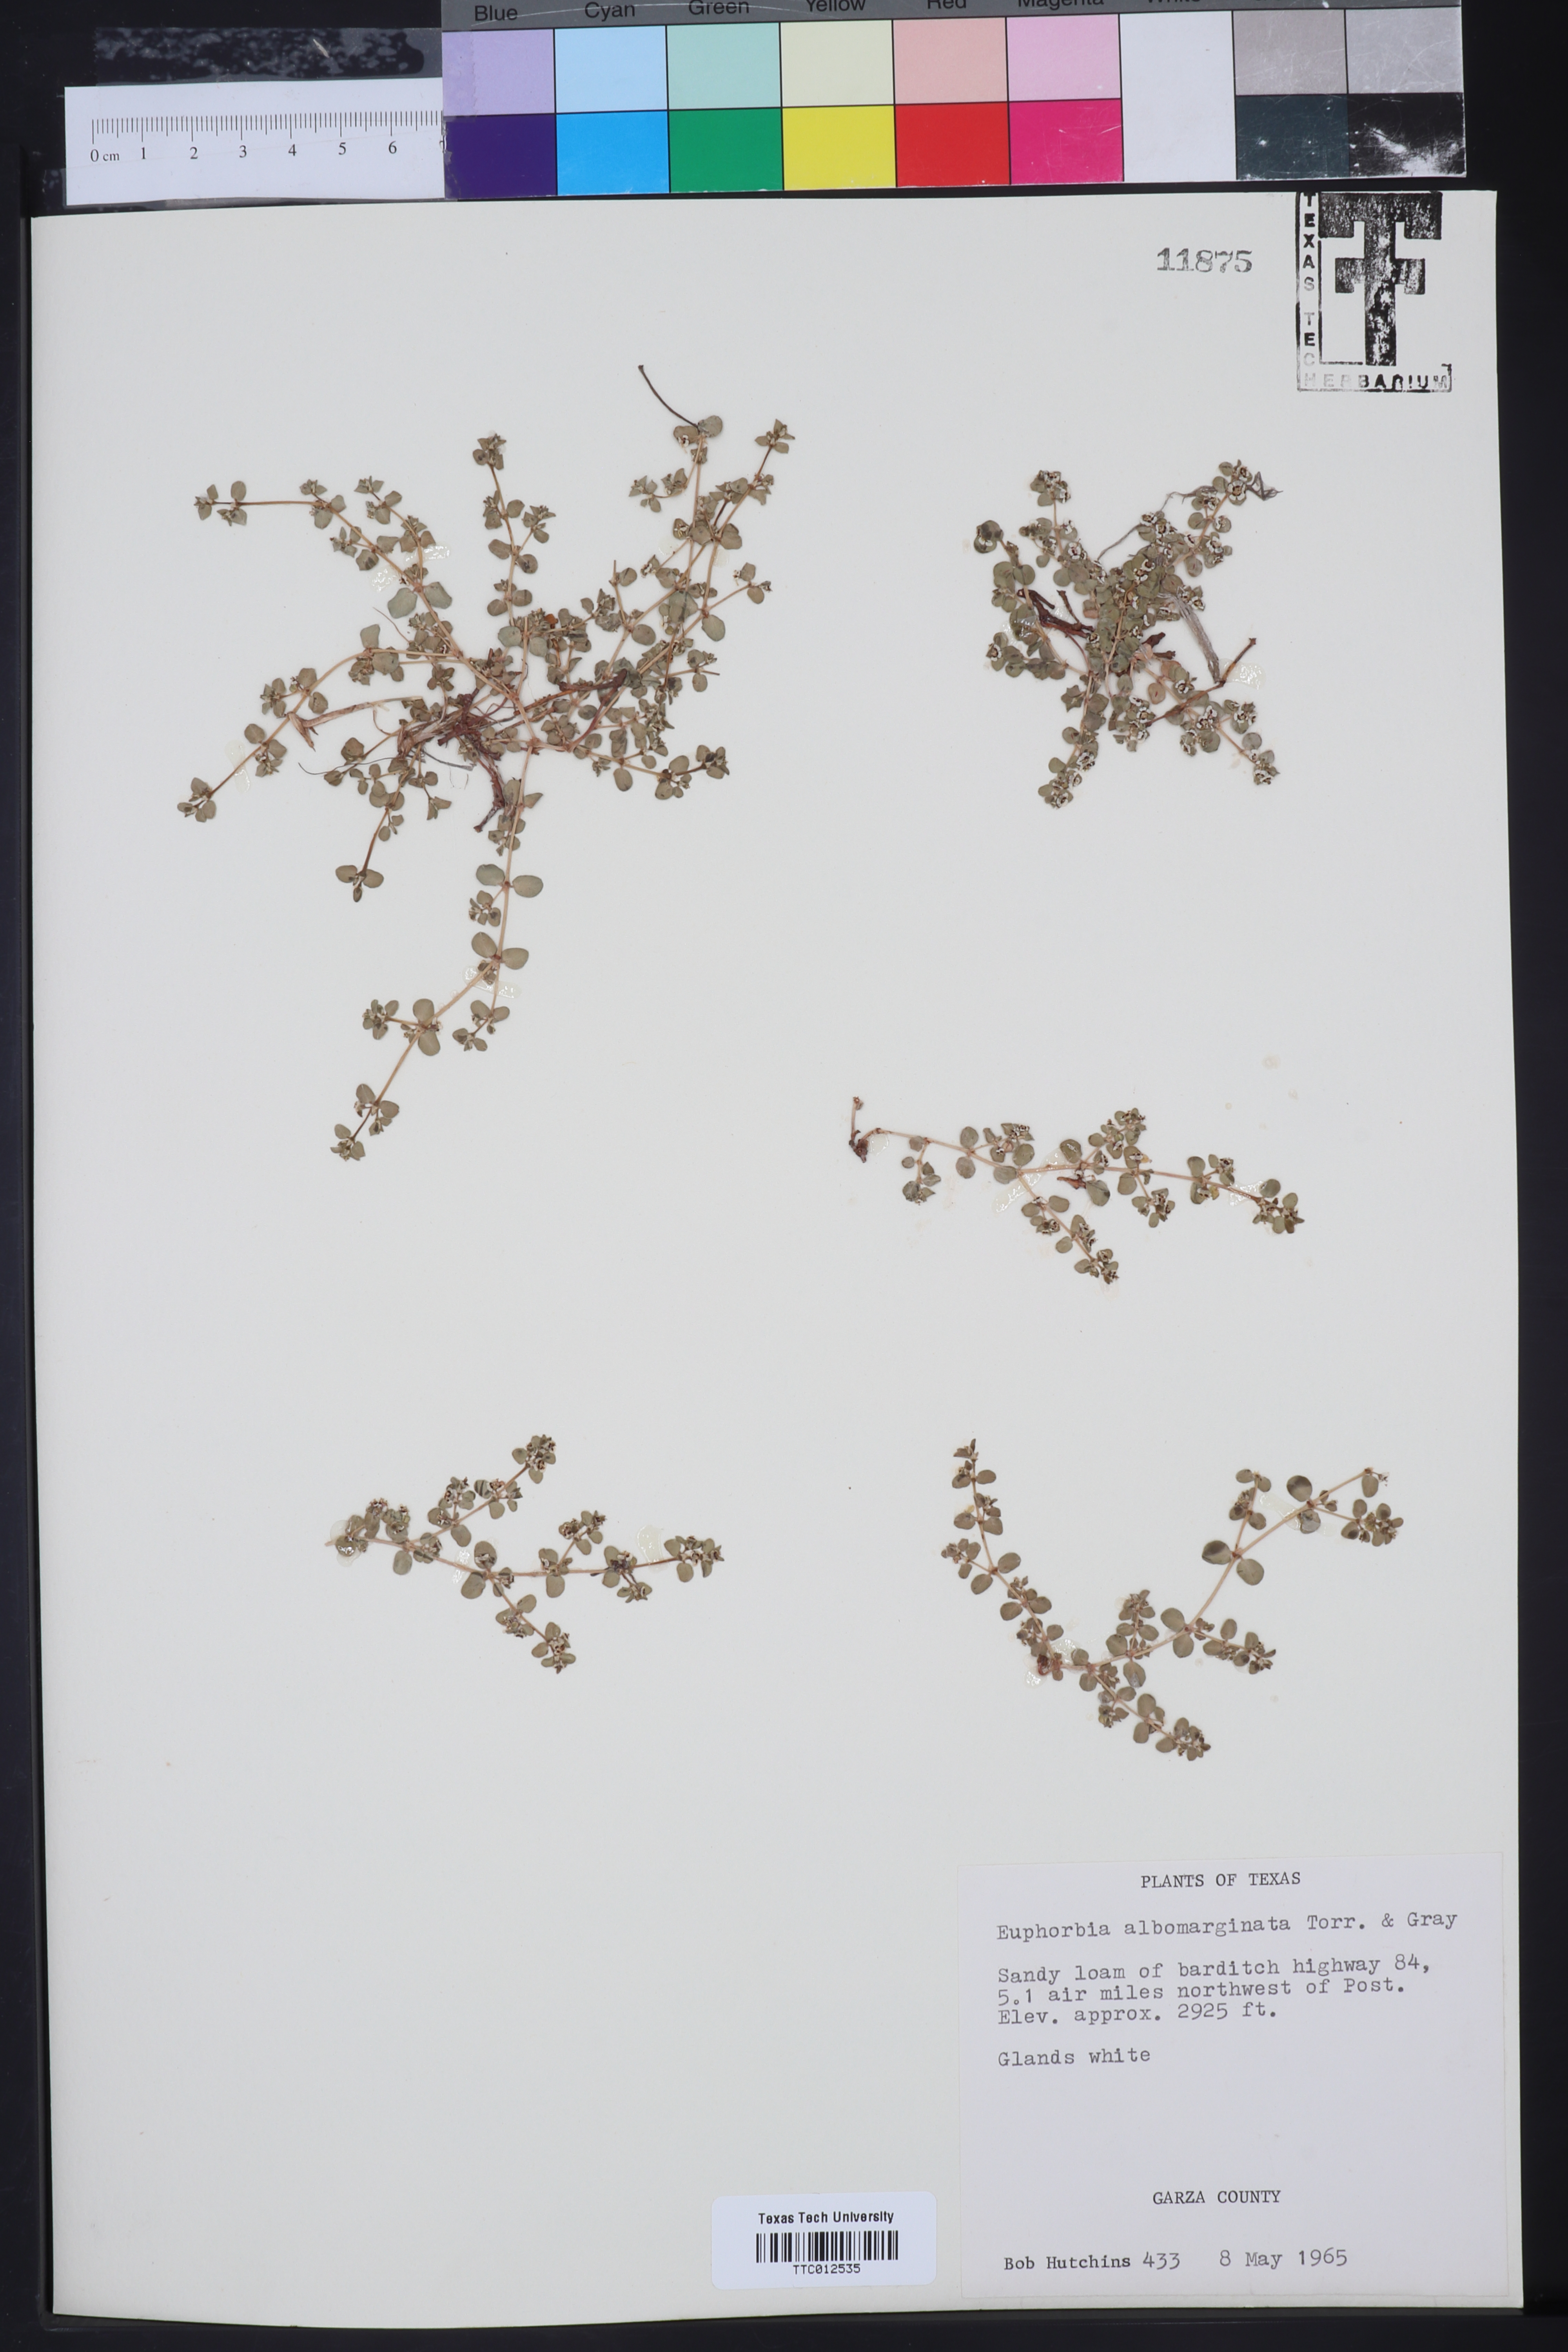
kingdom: Plantae
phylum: Tracheophyta
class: Magnoliopsida
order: Malpighiales
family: Euphorbiaceae
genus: Euphorbia
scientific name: Euphorbia albomarginata
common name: Whitemargin sandmat
